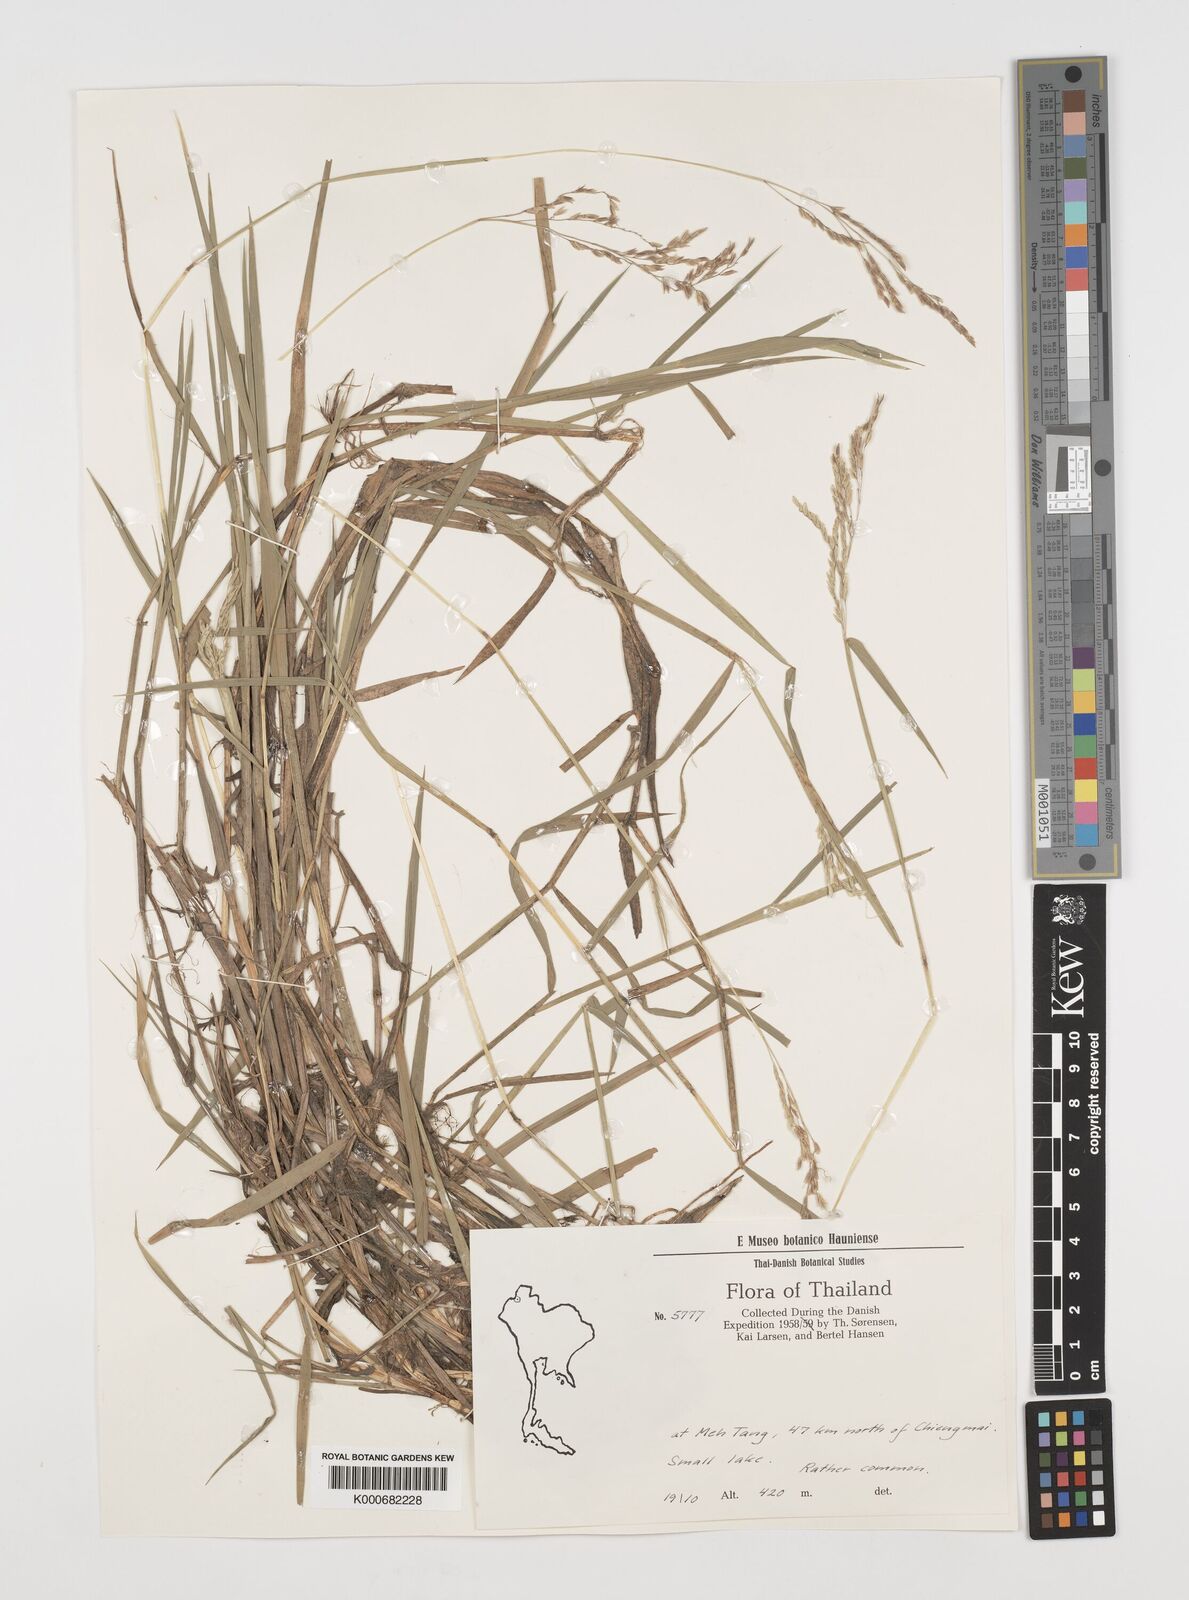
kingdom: Plantae
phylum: Tracheophyta
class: Liliopsida
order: Poales
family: Poaceae
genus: Leersia
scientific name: Leersia hexandra
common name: Southern cut grass
